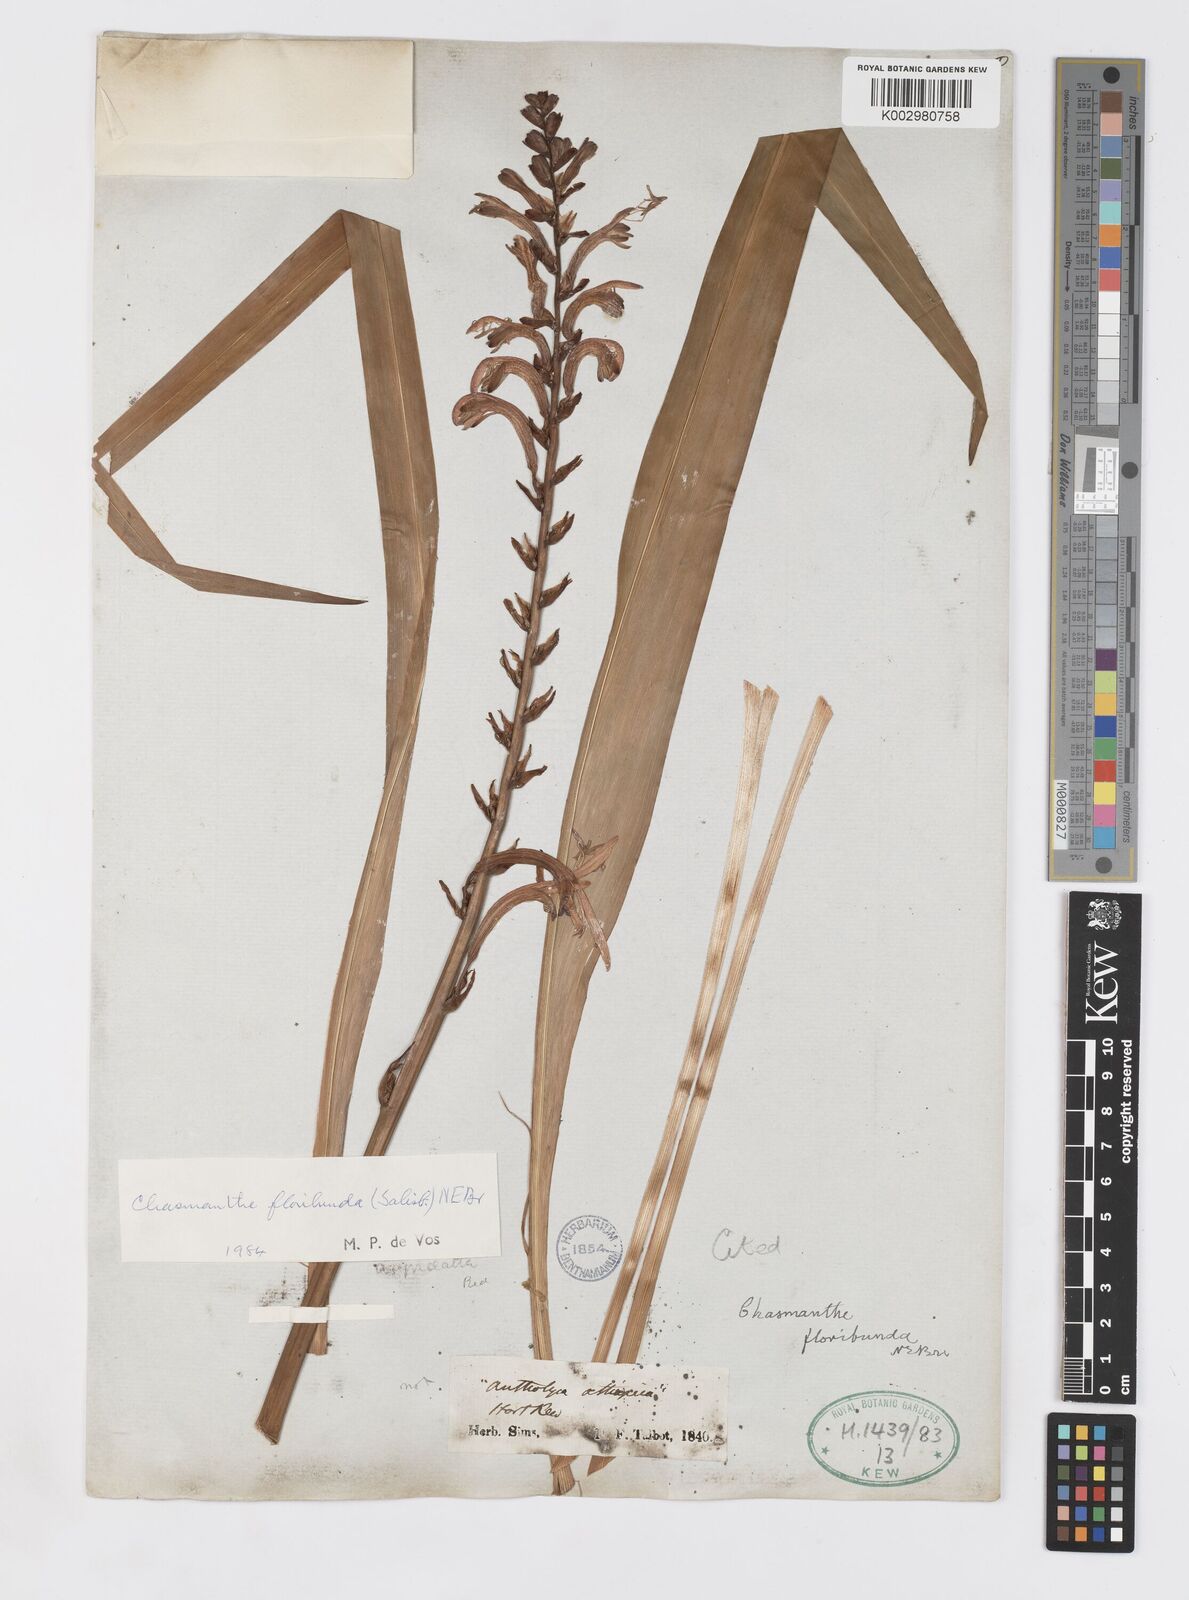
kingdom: Plantae
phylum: Tracheophyta
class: Liliopsida
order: Asparagales
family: Iridaceae
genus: Chasmanthe
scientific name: Chasmanthe floribunda
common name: African cornflag
